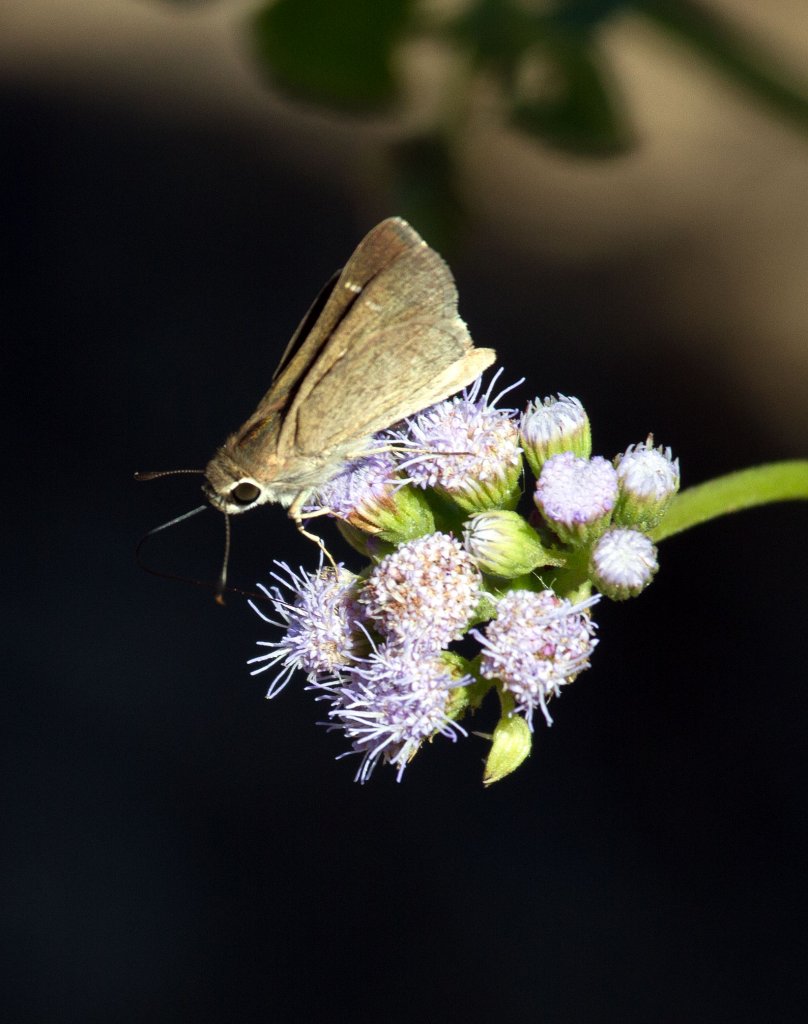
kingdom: Animalia
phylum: Arthropoda
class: Insecta
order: Lepidoptera
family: Hesperiidae
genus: Lerodea
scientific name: Lerodea eufala
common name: Eufala Skipper
